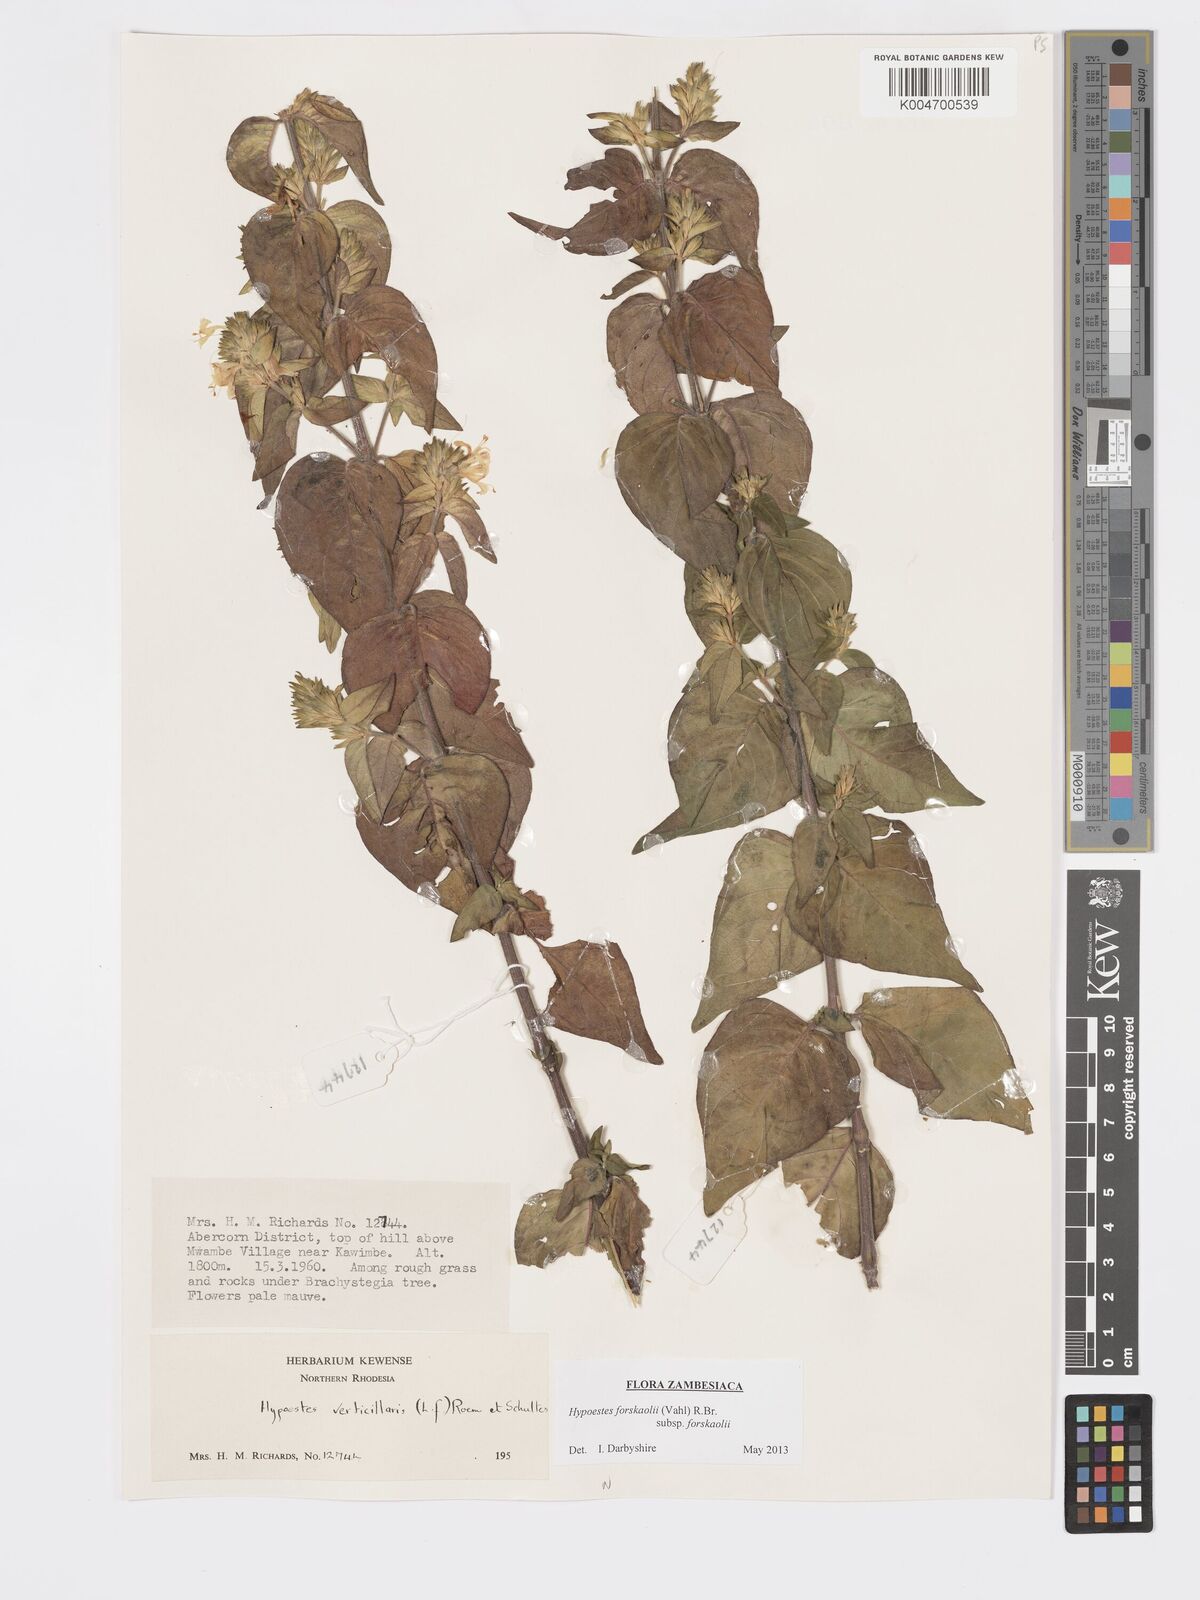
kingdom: Plantae
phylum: Tracheophyta
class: Magnoliopsida
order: Lamiales
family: Acanthaceae
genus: Hypoestes
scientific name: Hypoestes forskaolii
